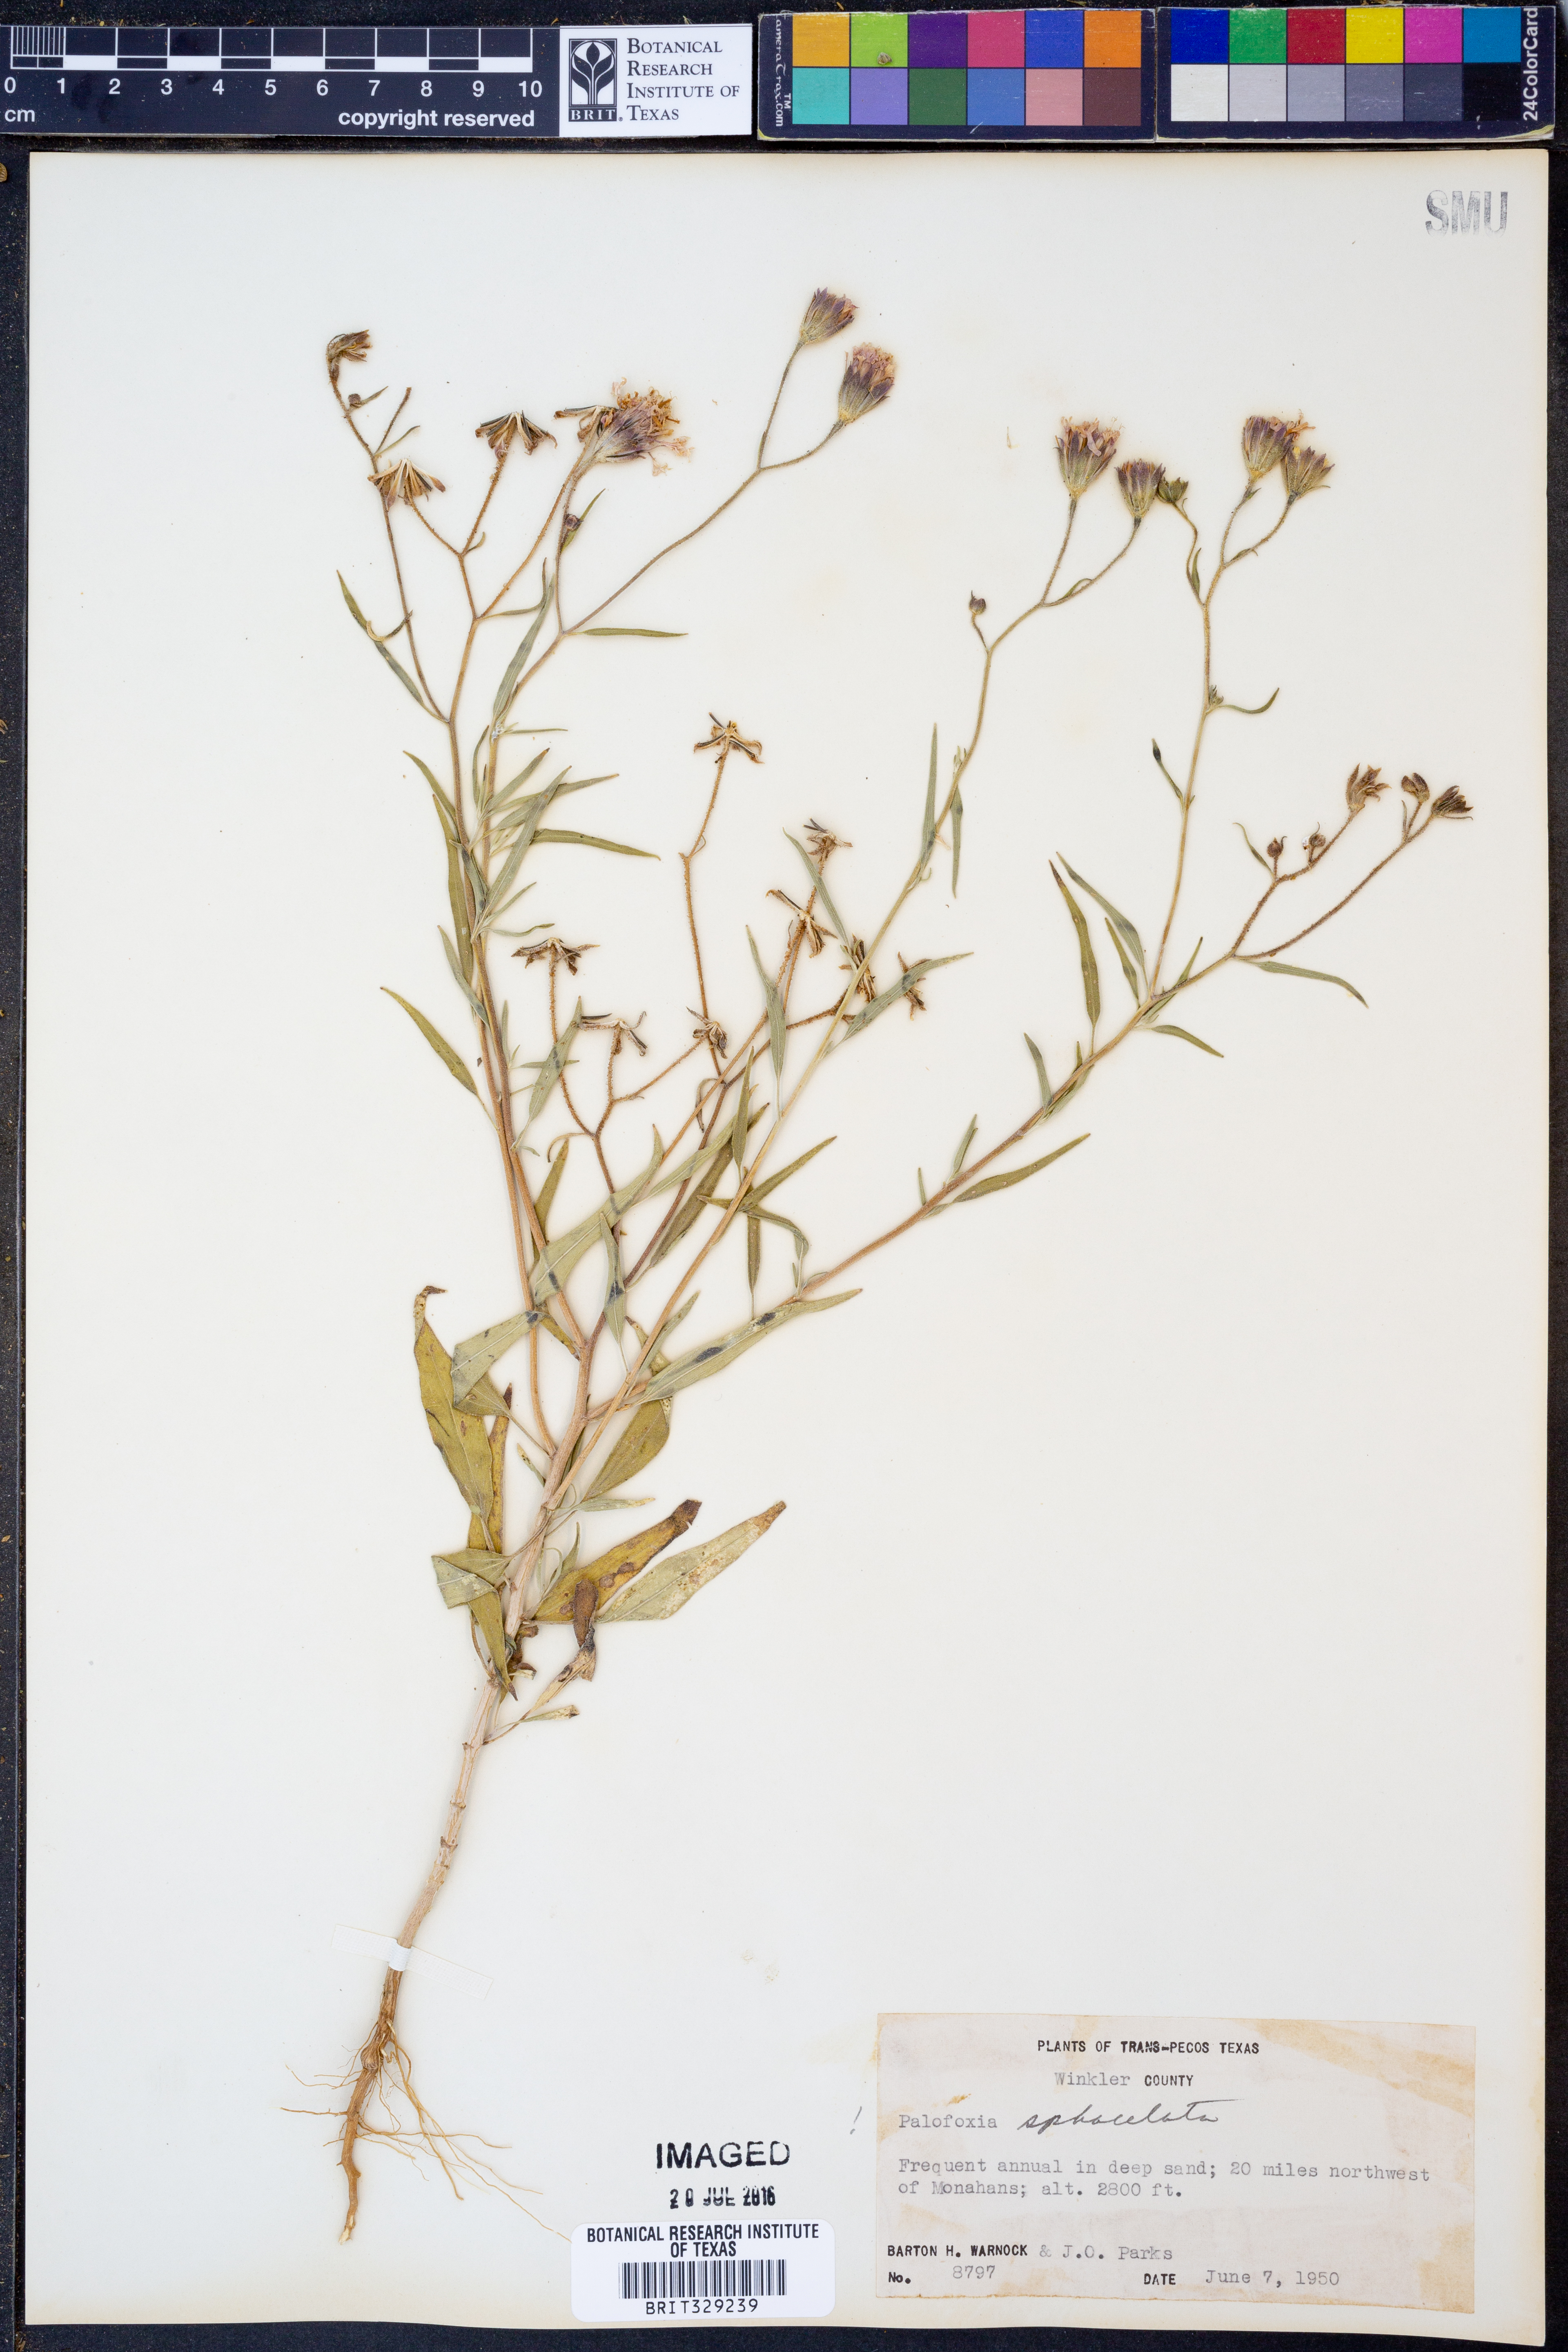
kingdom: Plantae
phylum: Tracheophyta
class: Magnoliopsida
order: Asterales
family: Asteraceae
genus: Palafoxia
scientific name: Palafoxia sphacelata
